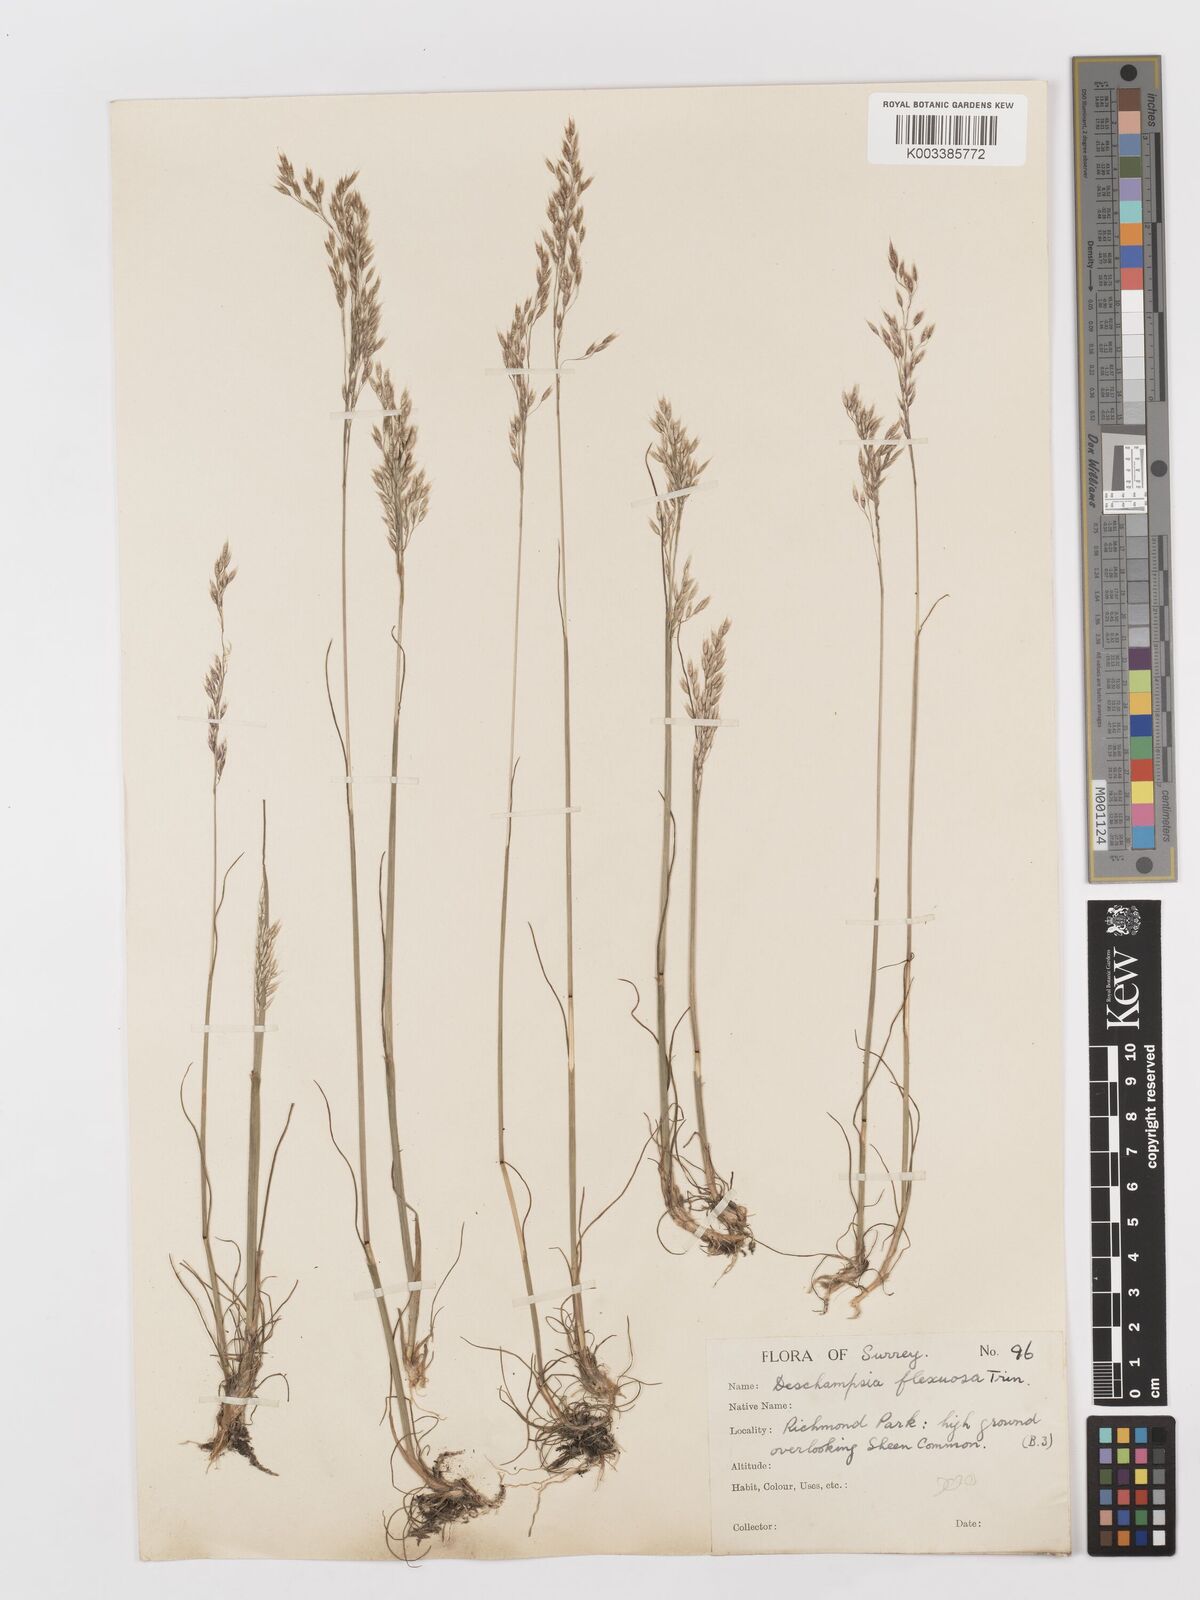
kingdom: Plantae
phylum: Tracheophyta
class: Liliopsida
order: Poales
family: Poaceae
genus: Avenella
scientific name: Avenella flexuosa
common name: Wavy hairgrass
